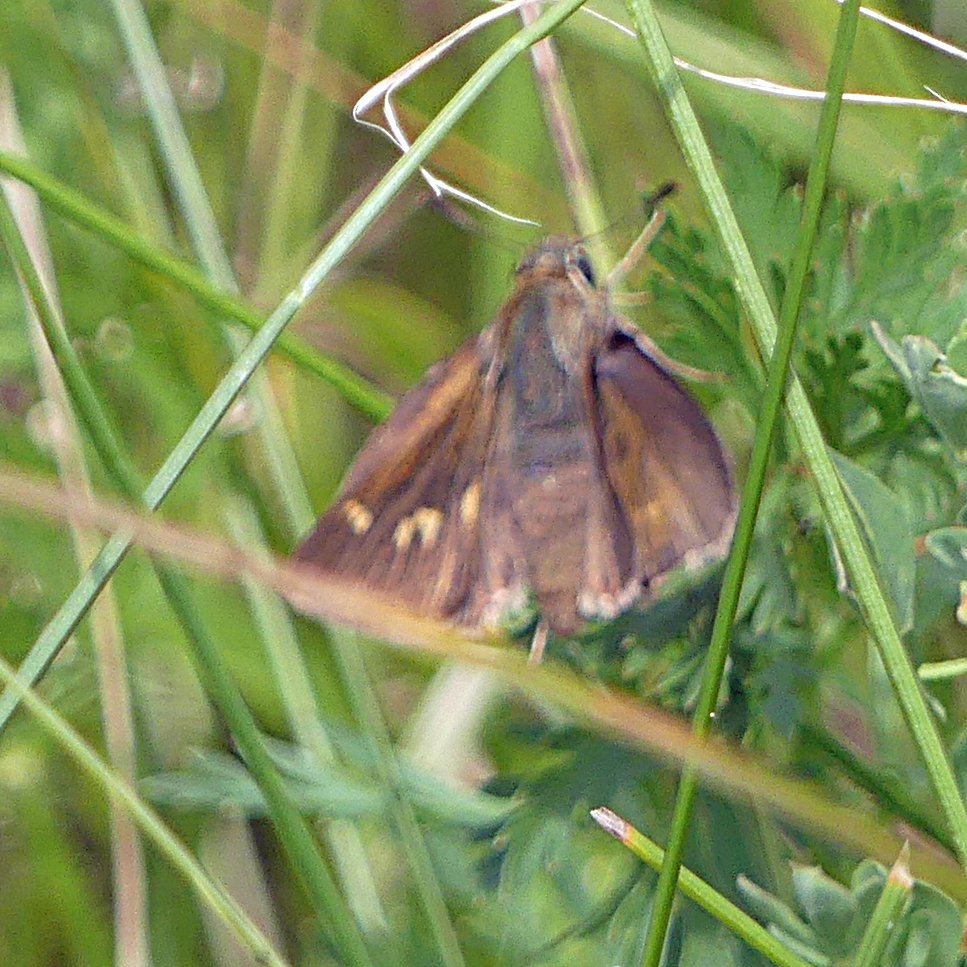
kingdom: Animalia
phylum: Arthropoda
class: Insecta
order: Lepidoptera
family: Hesperiidae
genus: Euphyes
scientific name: Euphyes
